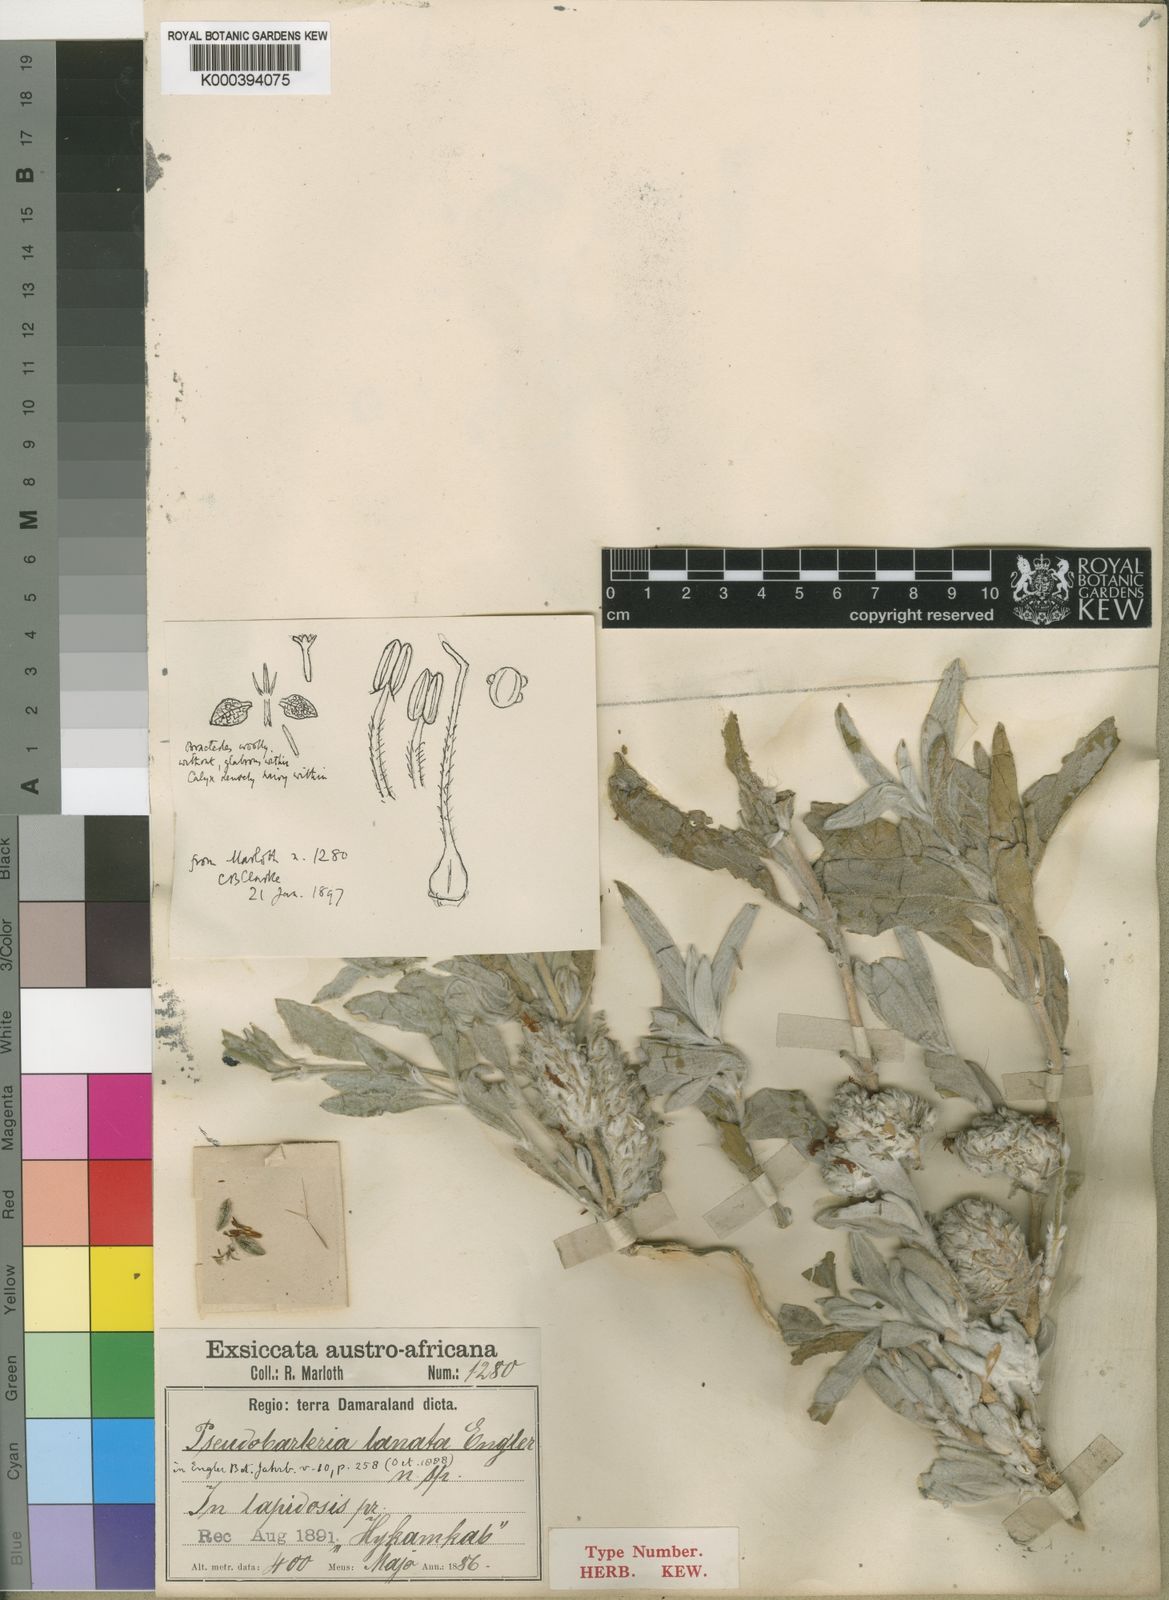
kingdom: Plantae
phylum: Tracheophyta
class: Magnoliopsida
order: Lamiales
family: Acanthaceae
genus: Petalidium
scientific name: Petalidium lanatum
